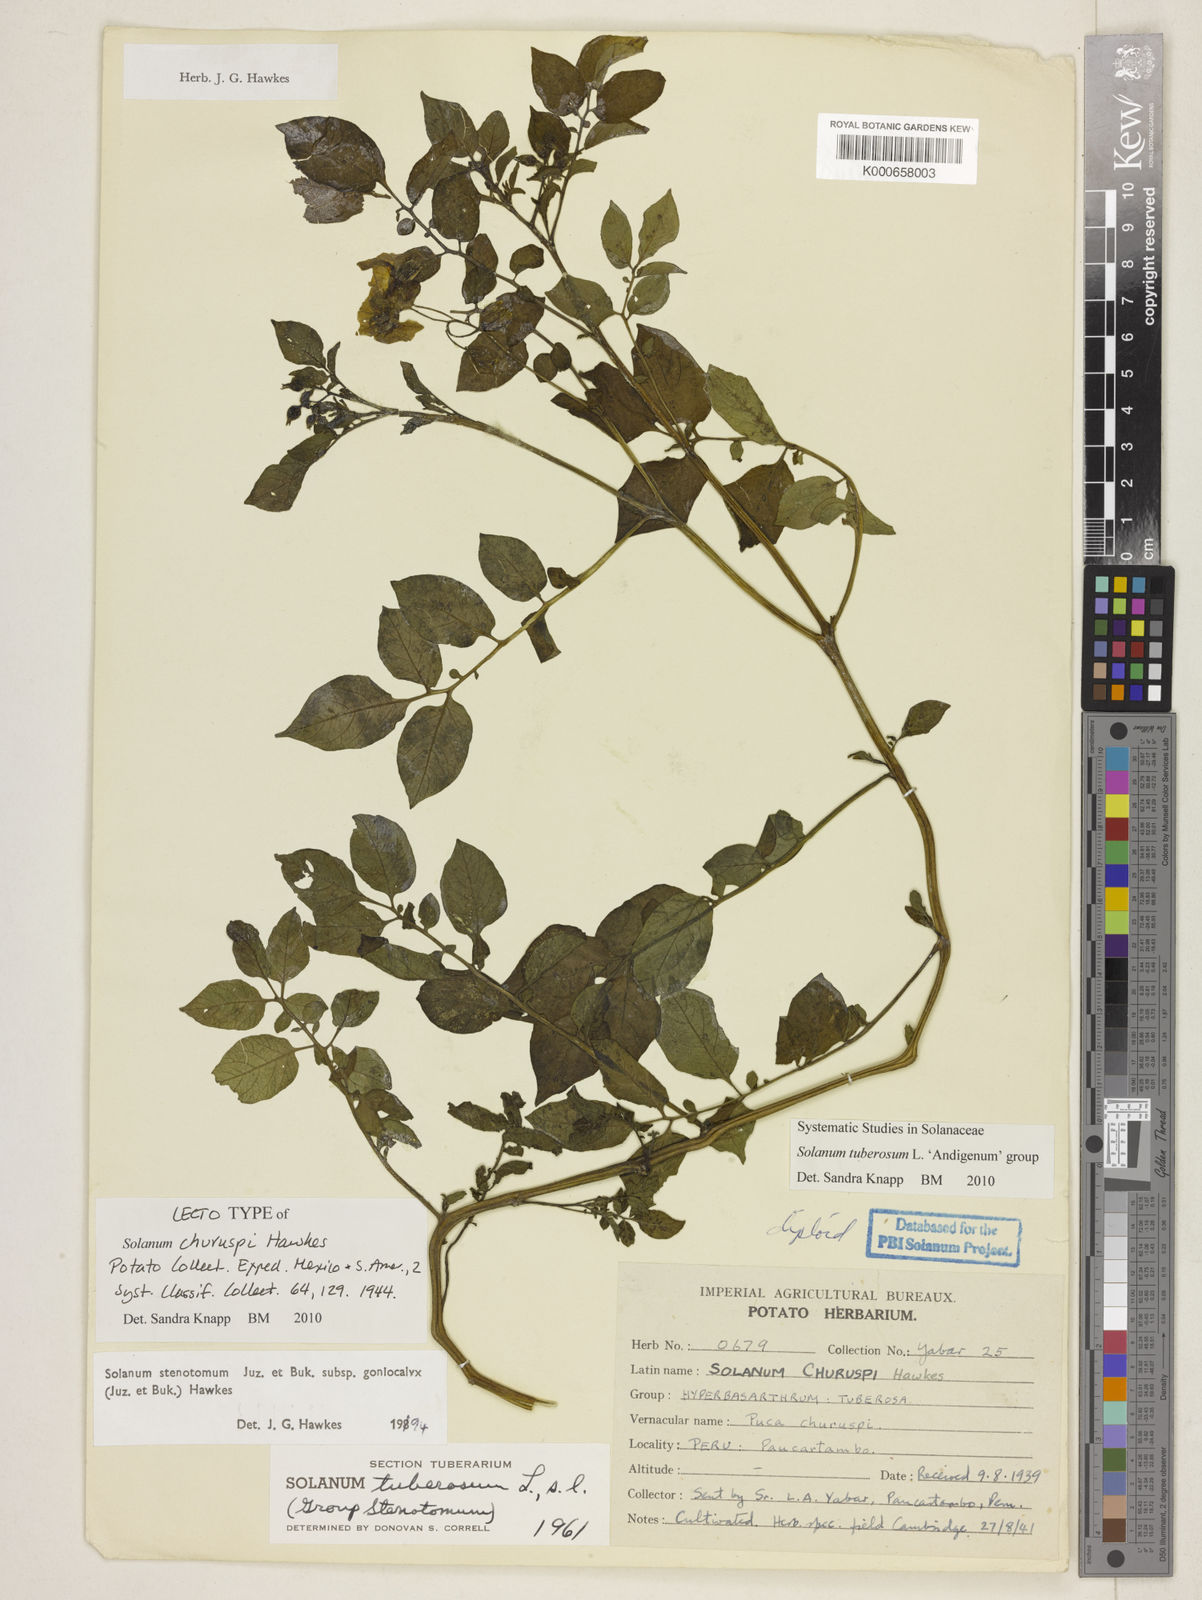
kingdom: Plantae
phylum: Tracheophyta
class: Magnoliopsida
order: Solanales
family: Solanaceae
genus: Solanum
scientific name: Solanum tuberosum
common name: Potato
